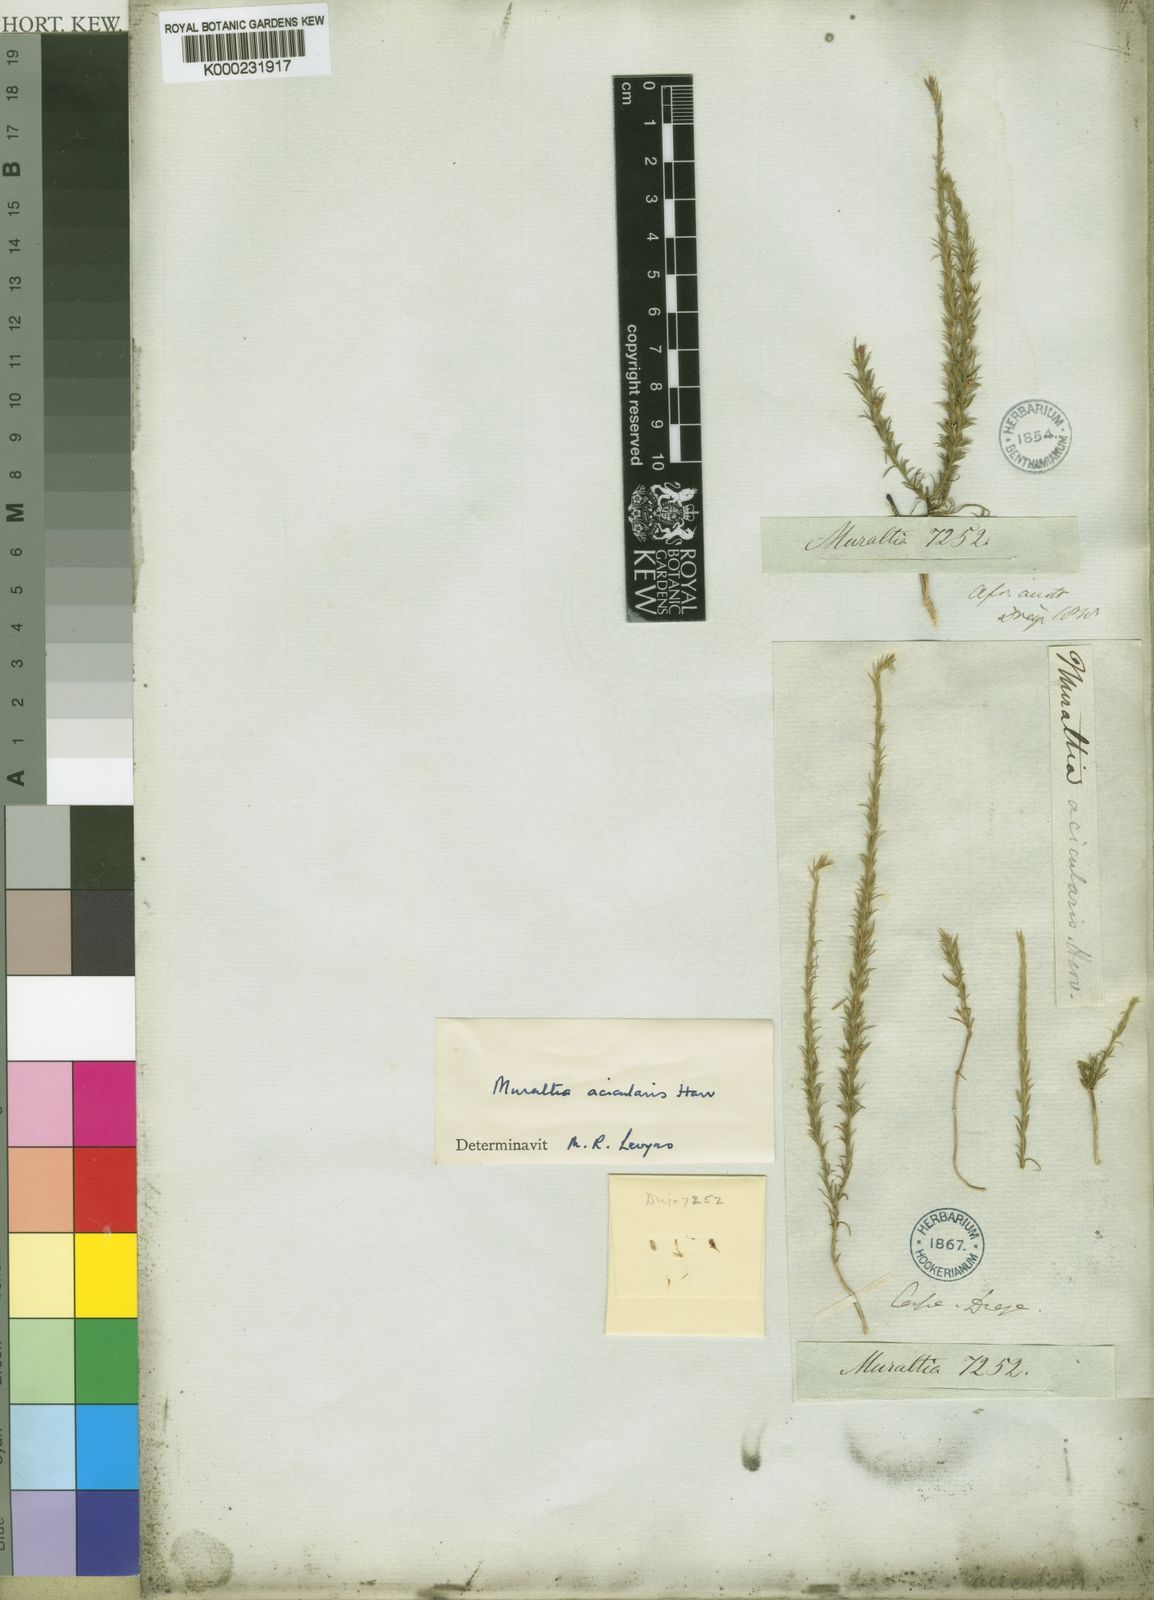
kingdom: Plantae
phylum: Tracheophyta
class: Magnoliopsida
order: Fabales
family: Polygalaceae
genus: Muraltia
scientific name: Muraltia acicularis
